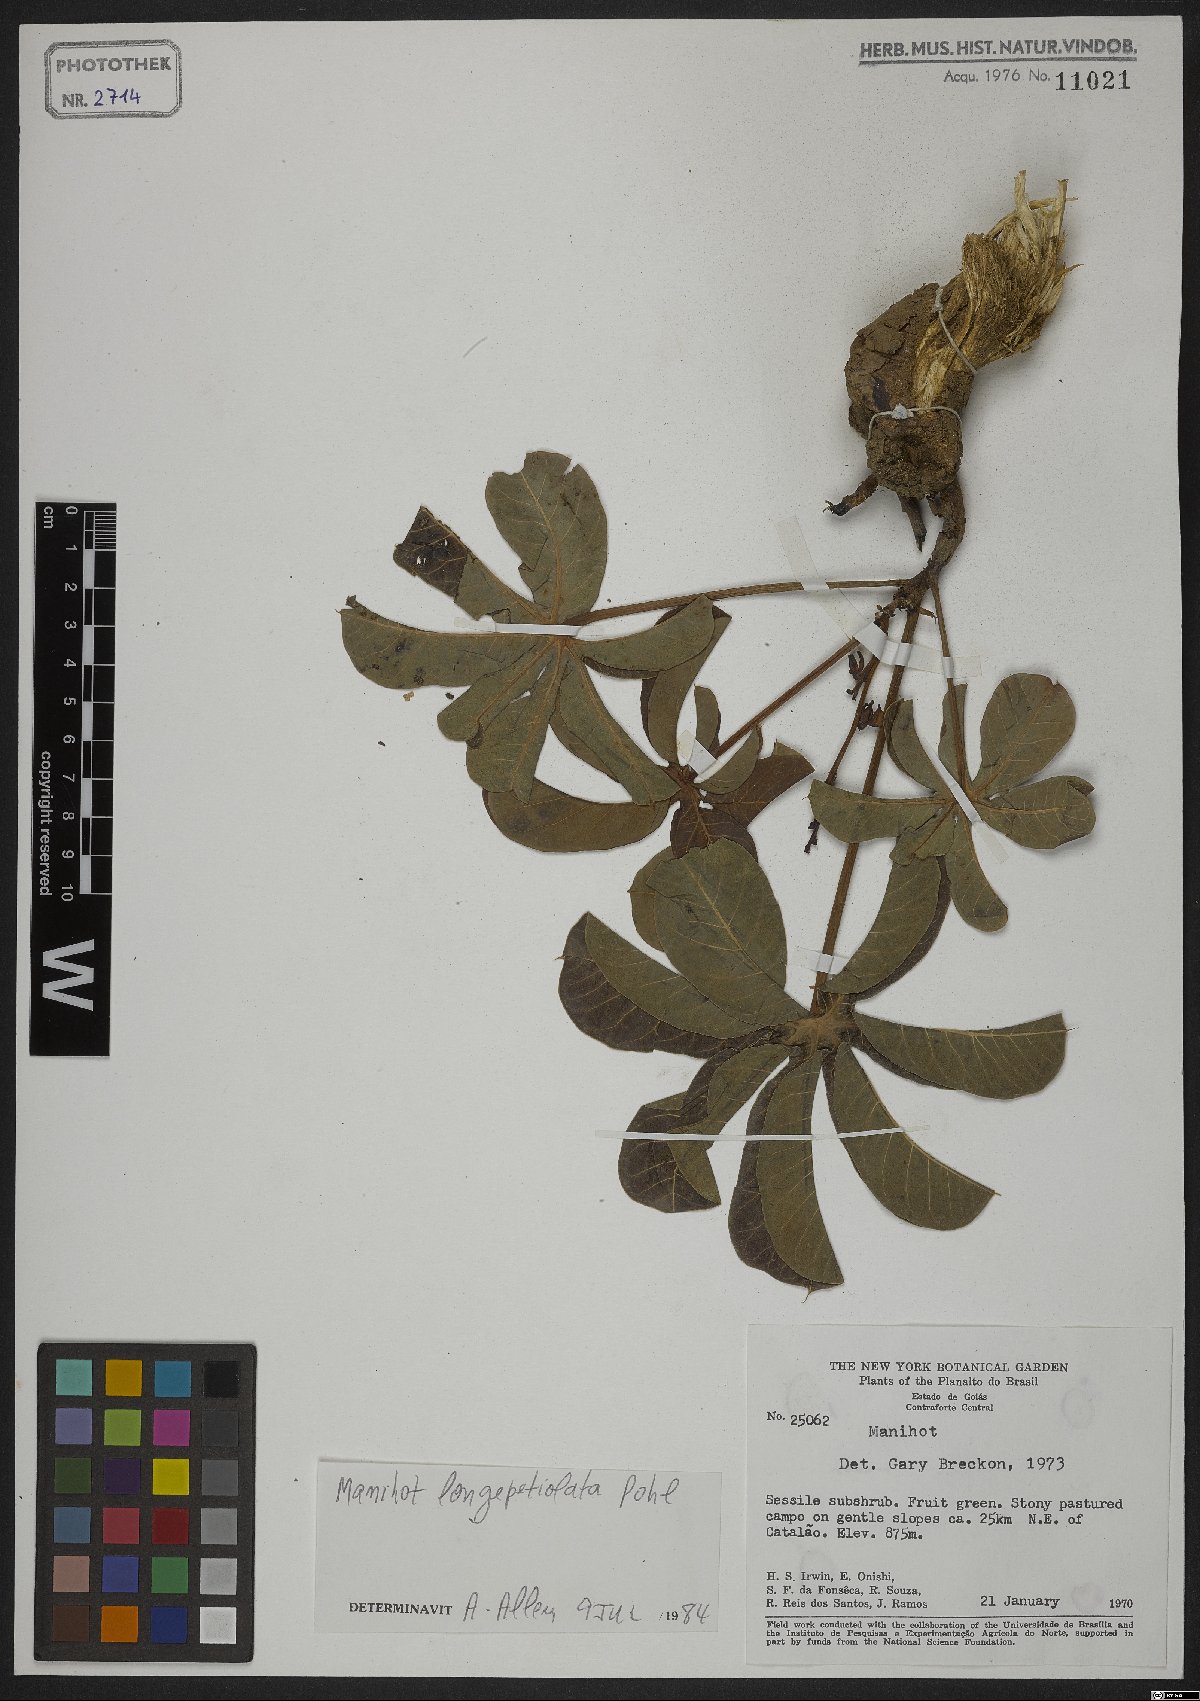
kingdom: Plantae
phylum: Tracheophyta
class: Magnoliopsida
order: Malpighiales
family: Euphorbiaceae
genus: Manihot
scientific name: Manihot longepetiolata
